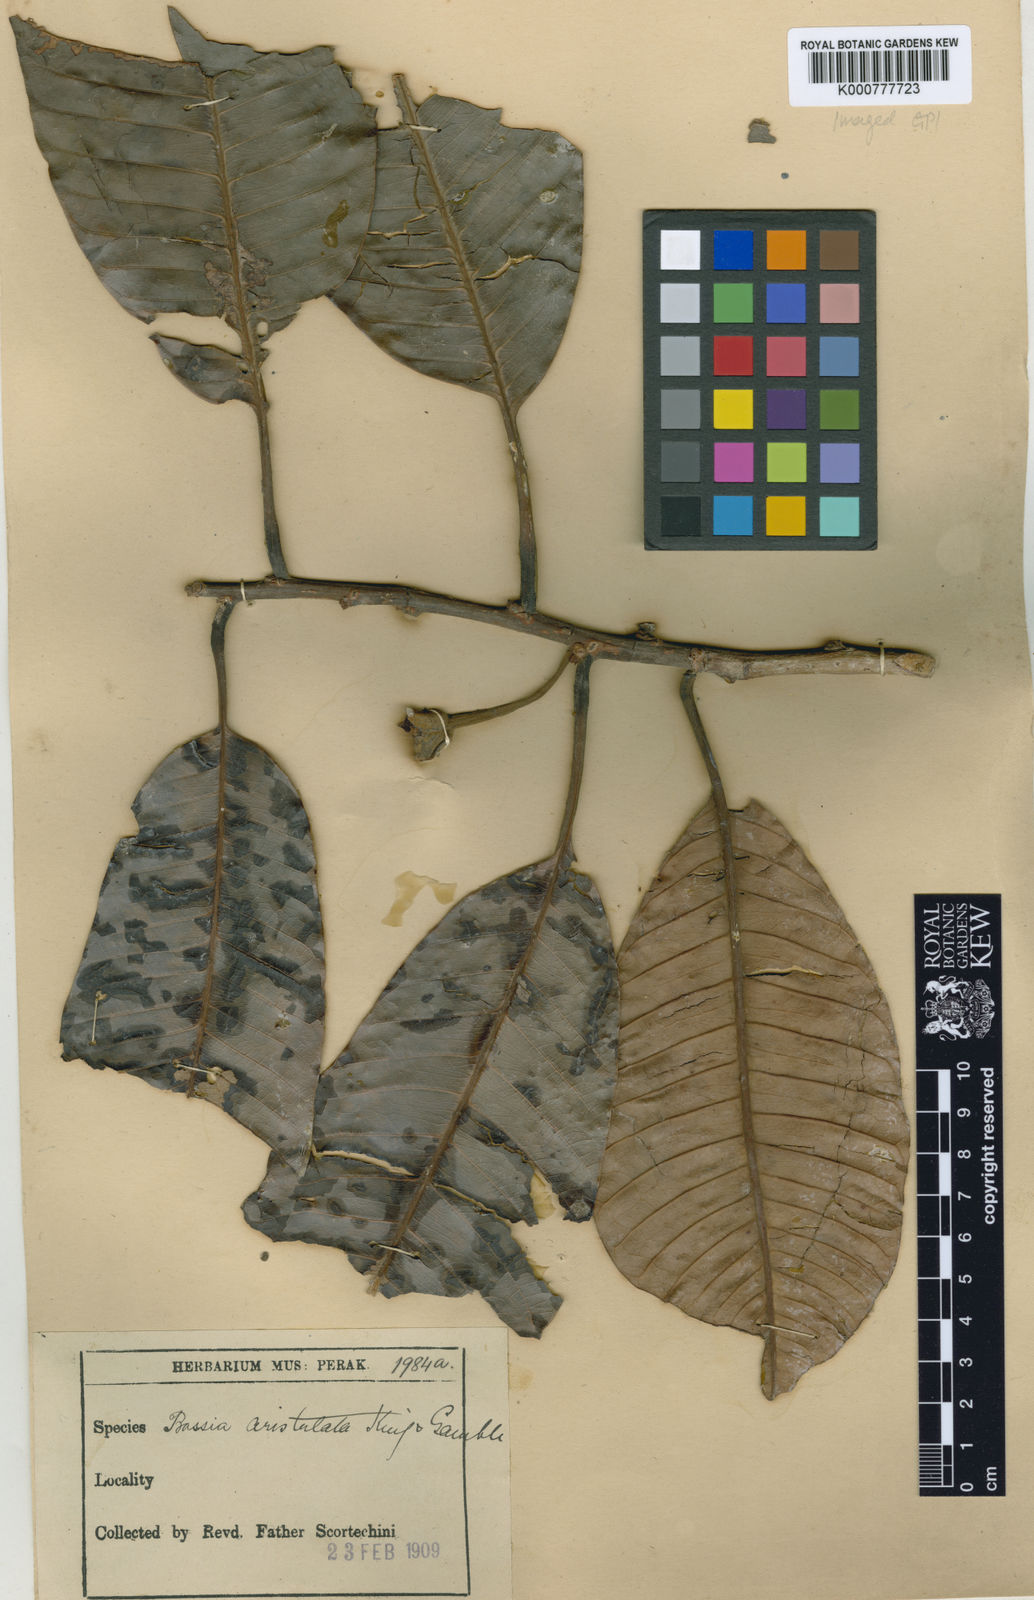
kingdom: Plantae
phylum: Tracheophyta
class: Magnoliopsida
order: Ericales
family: Sapotaceae
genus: Madhuca
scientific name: Madhuca aristulata
